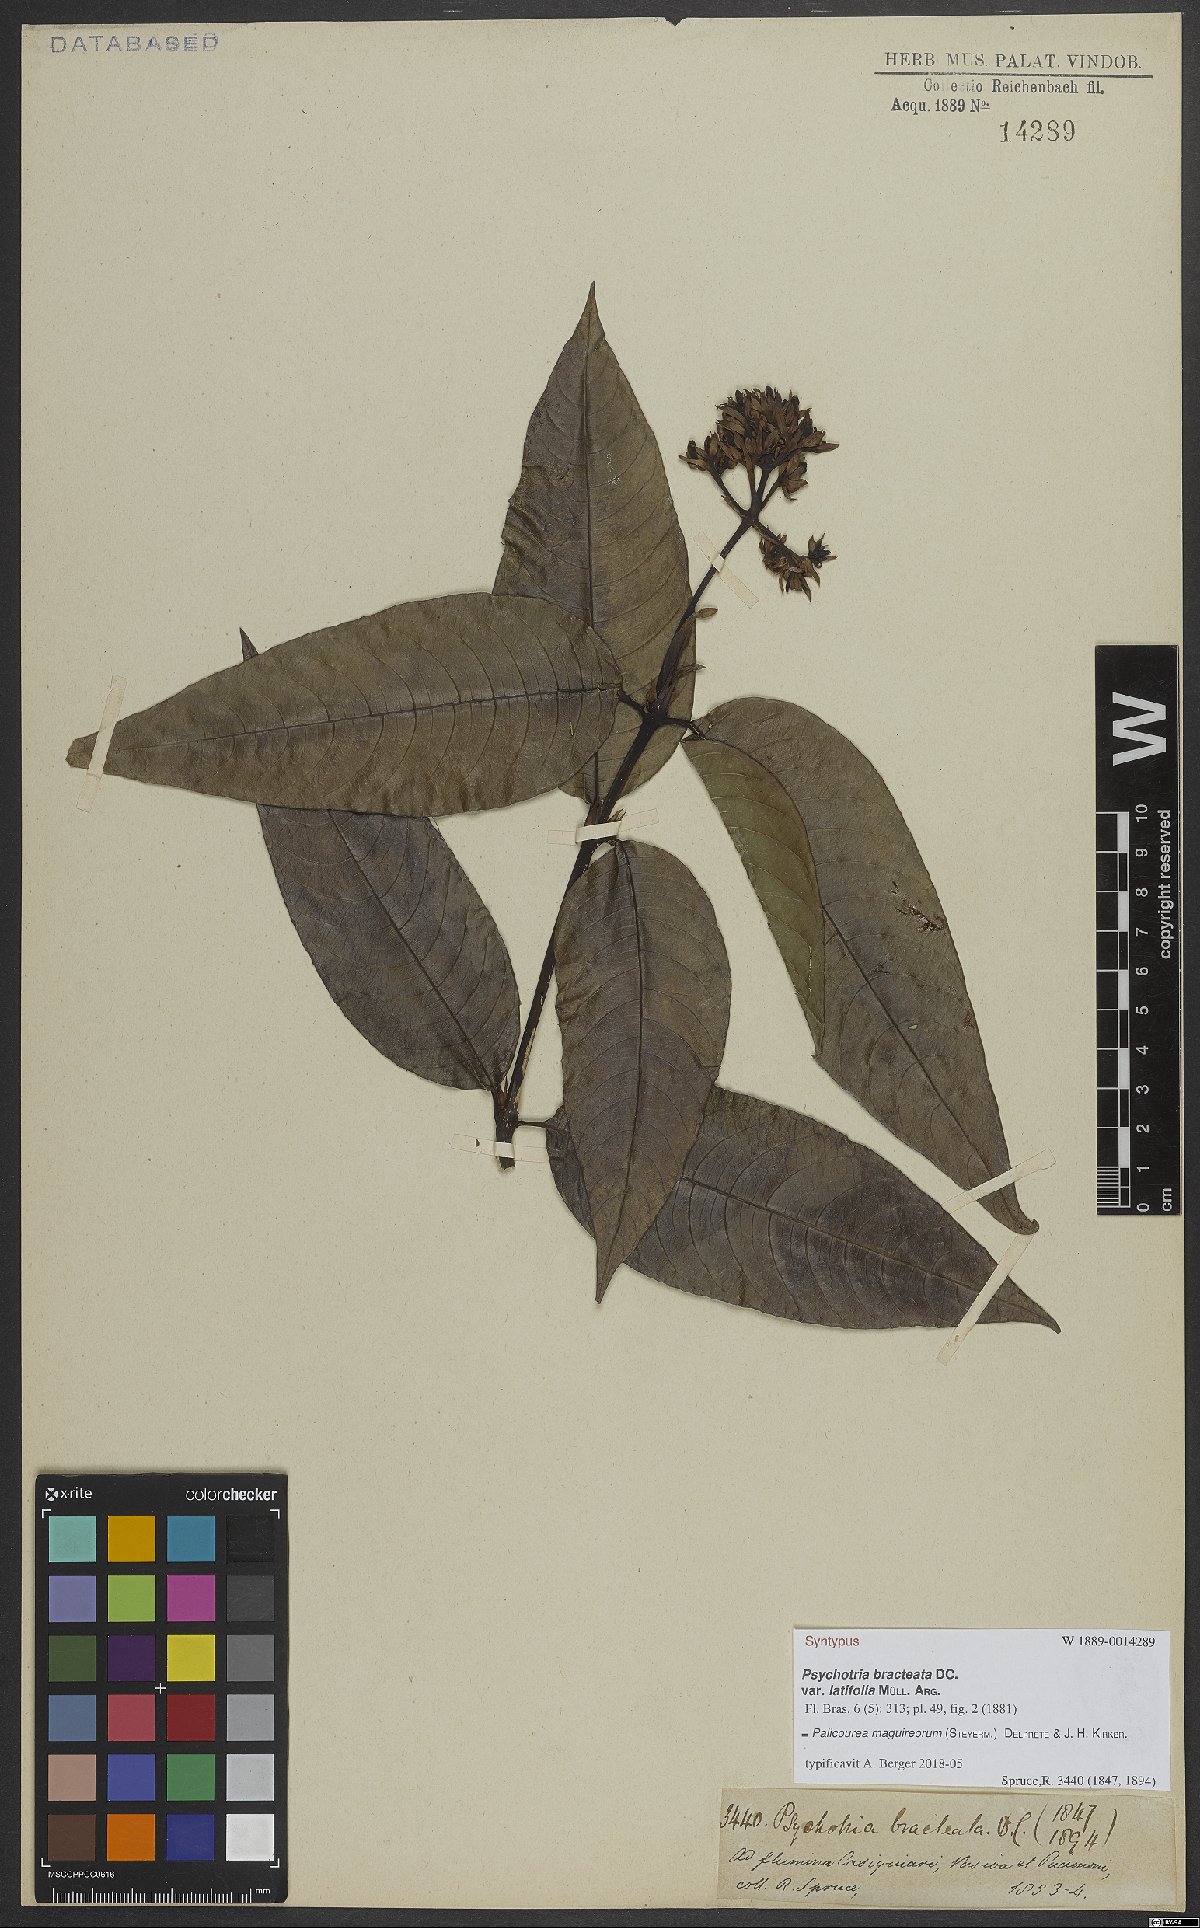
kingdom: Plantae
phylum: Tracheophyta
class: Magnoliopsida
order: Gentianales
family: Rubiaceae
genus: Palicourea
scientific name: Palicourea maguireorum
